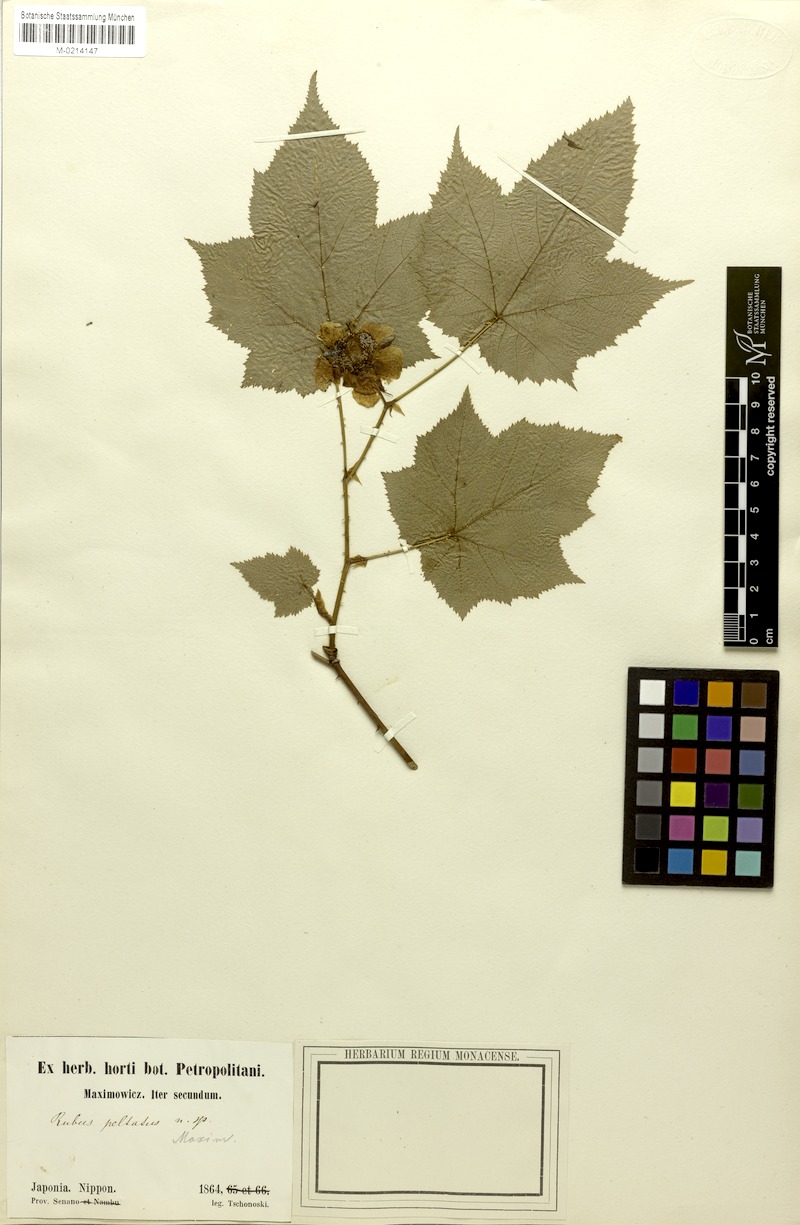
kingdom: Plantae
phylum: Tracheophyta
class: Magnoliopsida
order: Rosales
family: Rosaceae
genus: Rubus
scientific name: Rubus peltatus
